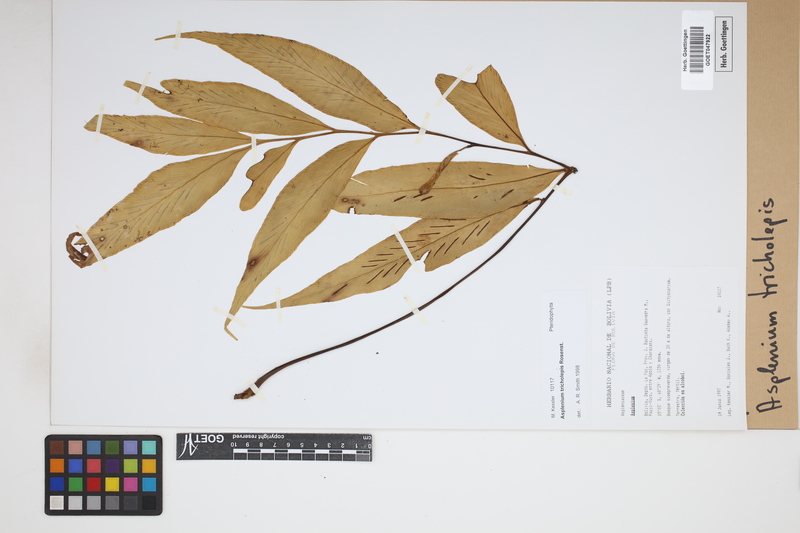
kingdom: Plantae
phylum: Tracheophyta
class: Polypodiopsida
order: Polypodiales
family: Aspleniaceae
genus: Asplenium
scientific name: Asplenium tricholepis
